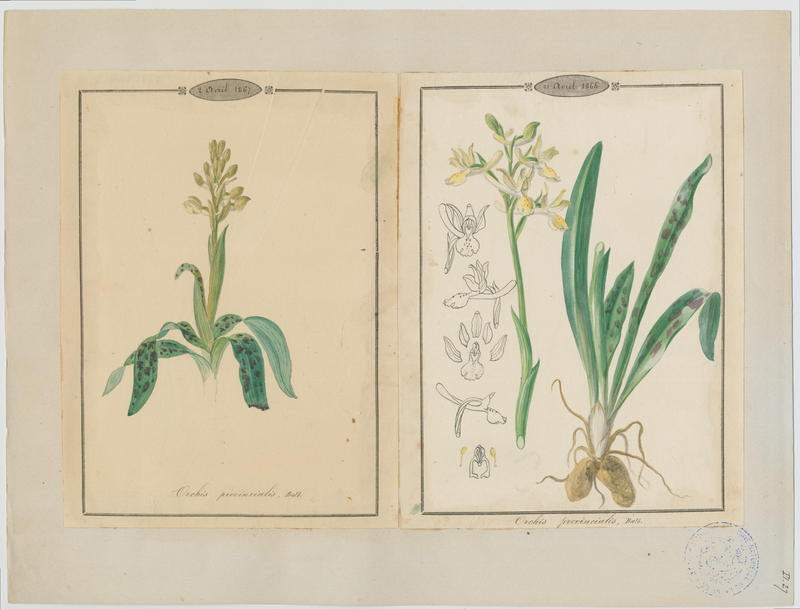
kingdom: Plantae
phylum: Tracheophyta
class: Liliopsida
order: Asparagales
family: Orchidaceae
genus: Orchis
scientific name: Orchis provincialis
